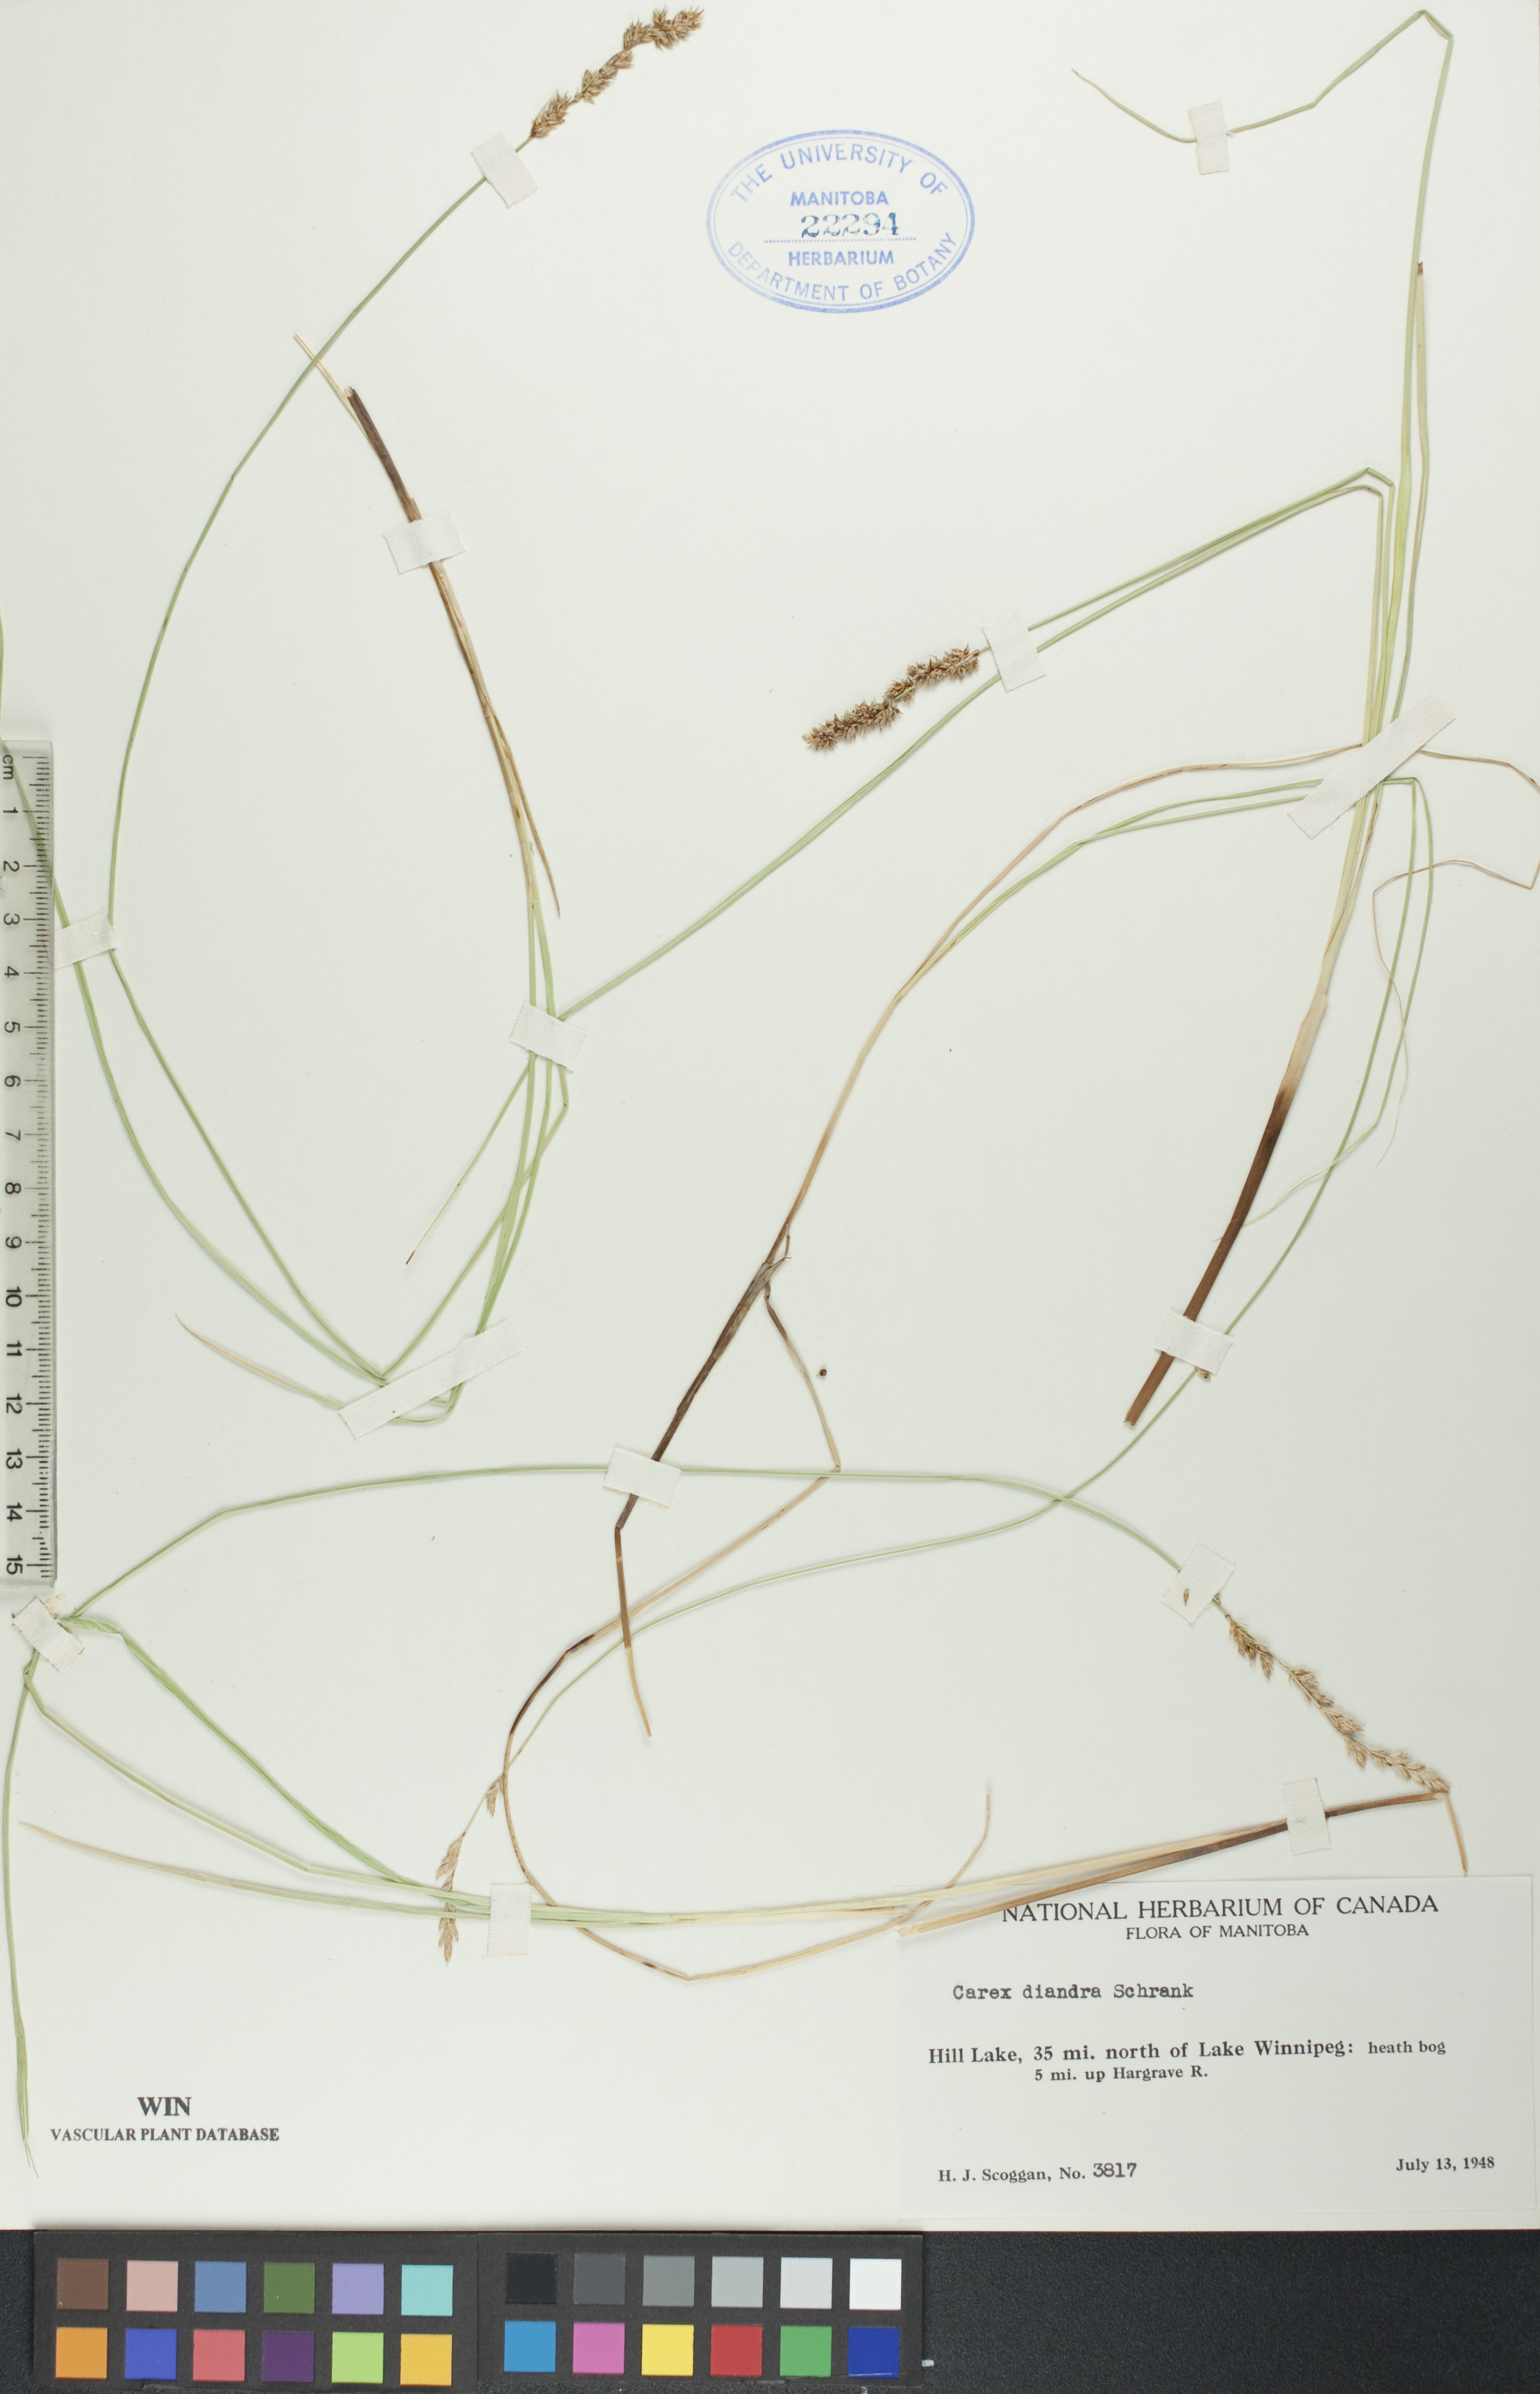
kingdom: Plantae
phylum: Tracheophyta
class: Liliopsida
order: Poales
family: Cyperaceae
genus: Carex
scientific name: Carex diandra
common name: Lesser tussock-sedge
